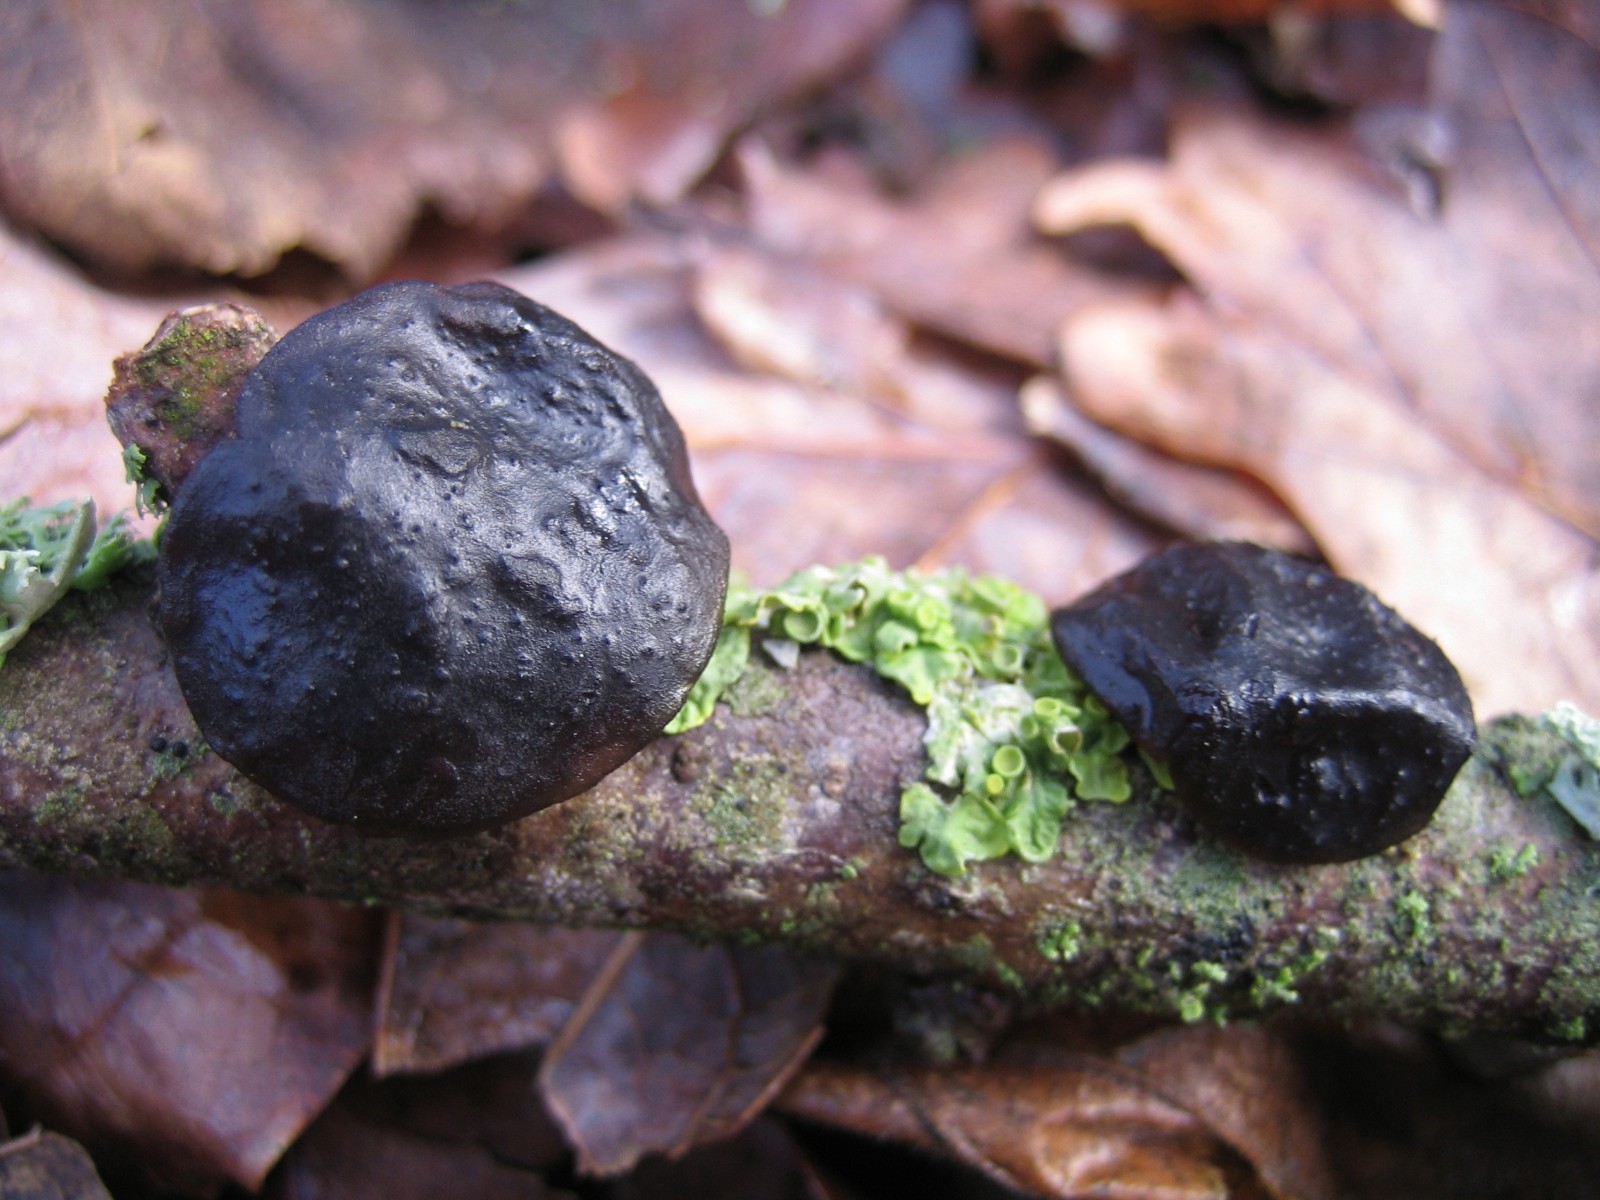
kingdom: Fungi
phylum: Basidiomycota
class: Agaricomycetes
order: Auriculariales
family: Auriculariaceae
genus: Exidia
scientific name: Exidia glandulosa
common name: ege-bævretop
